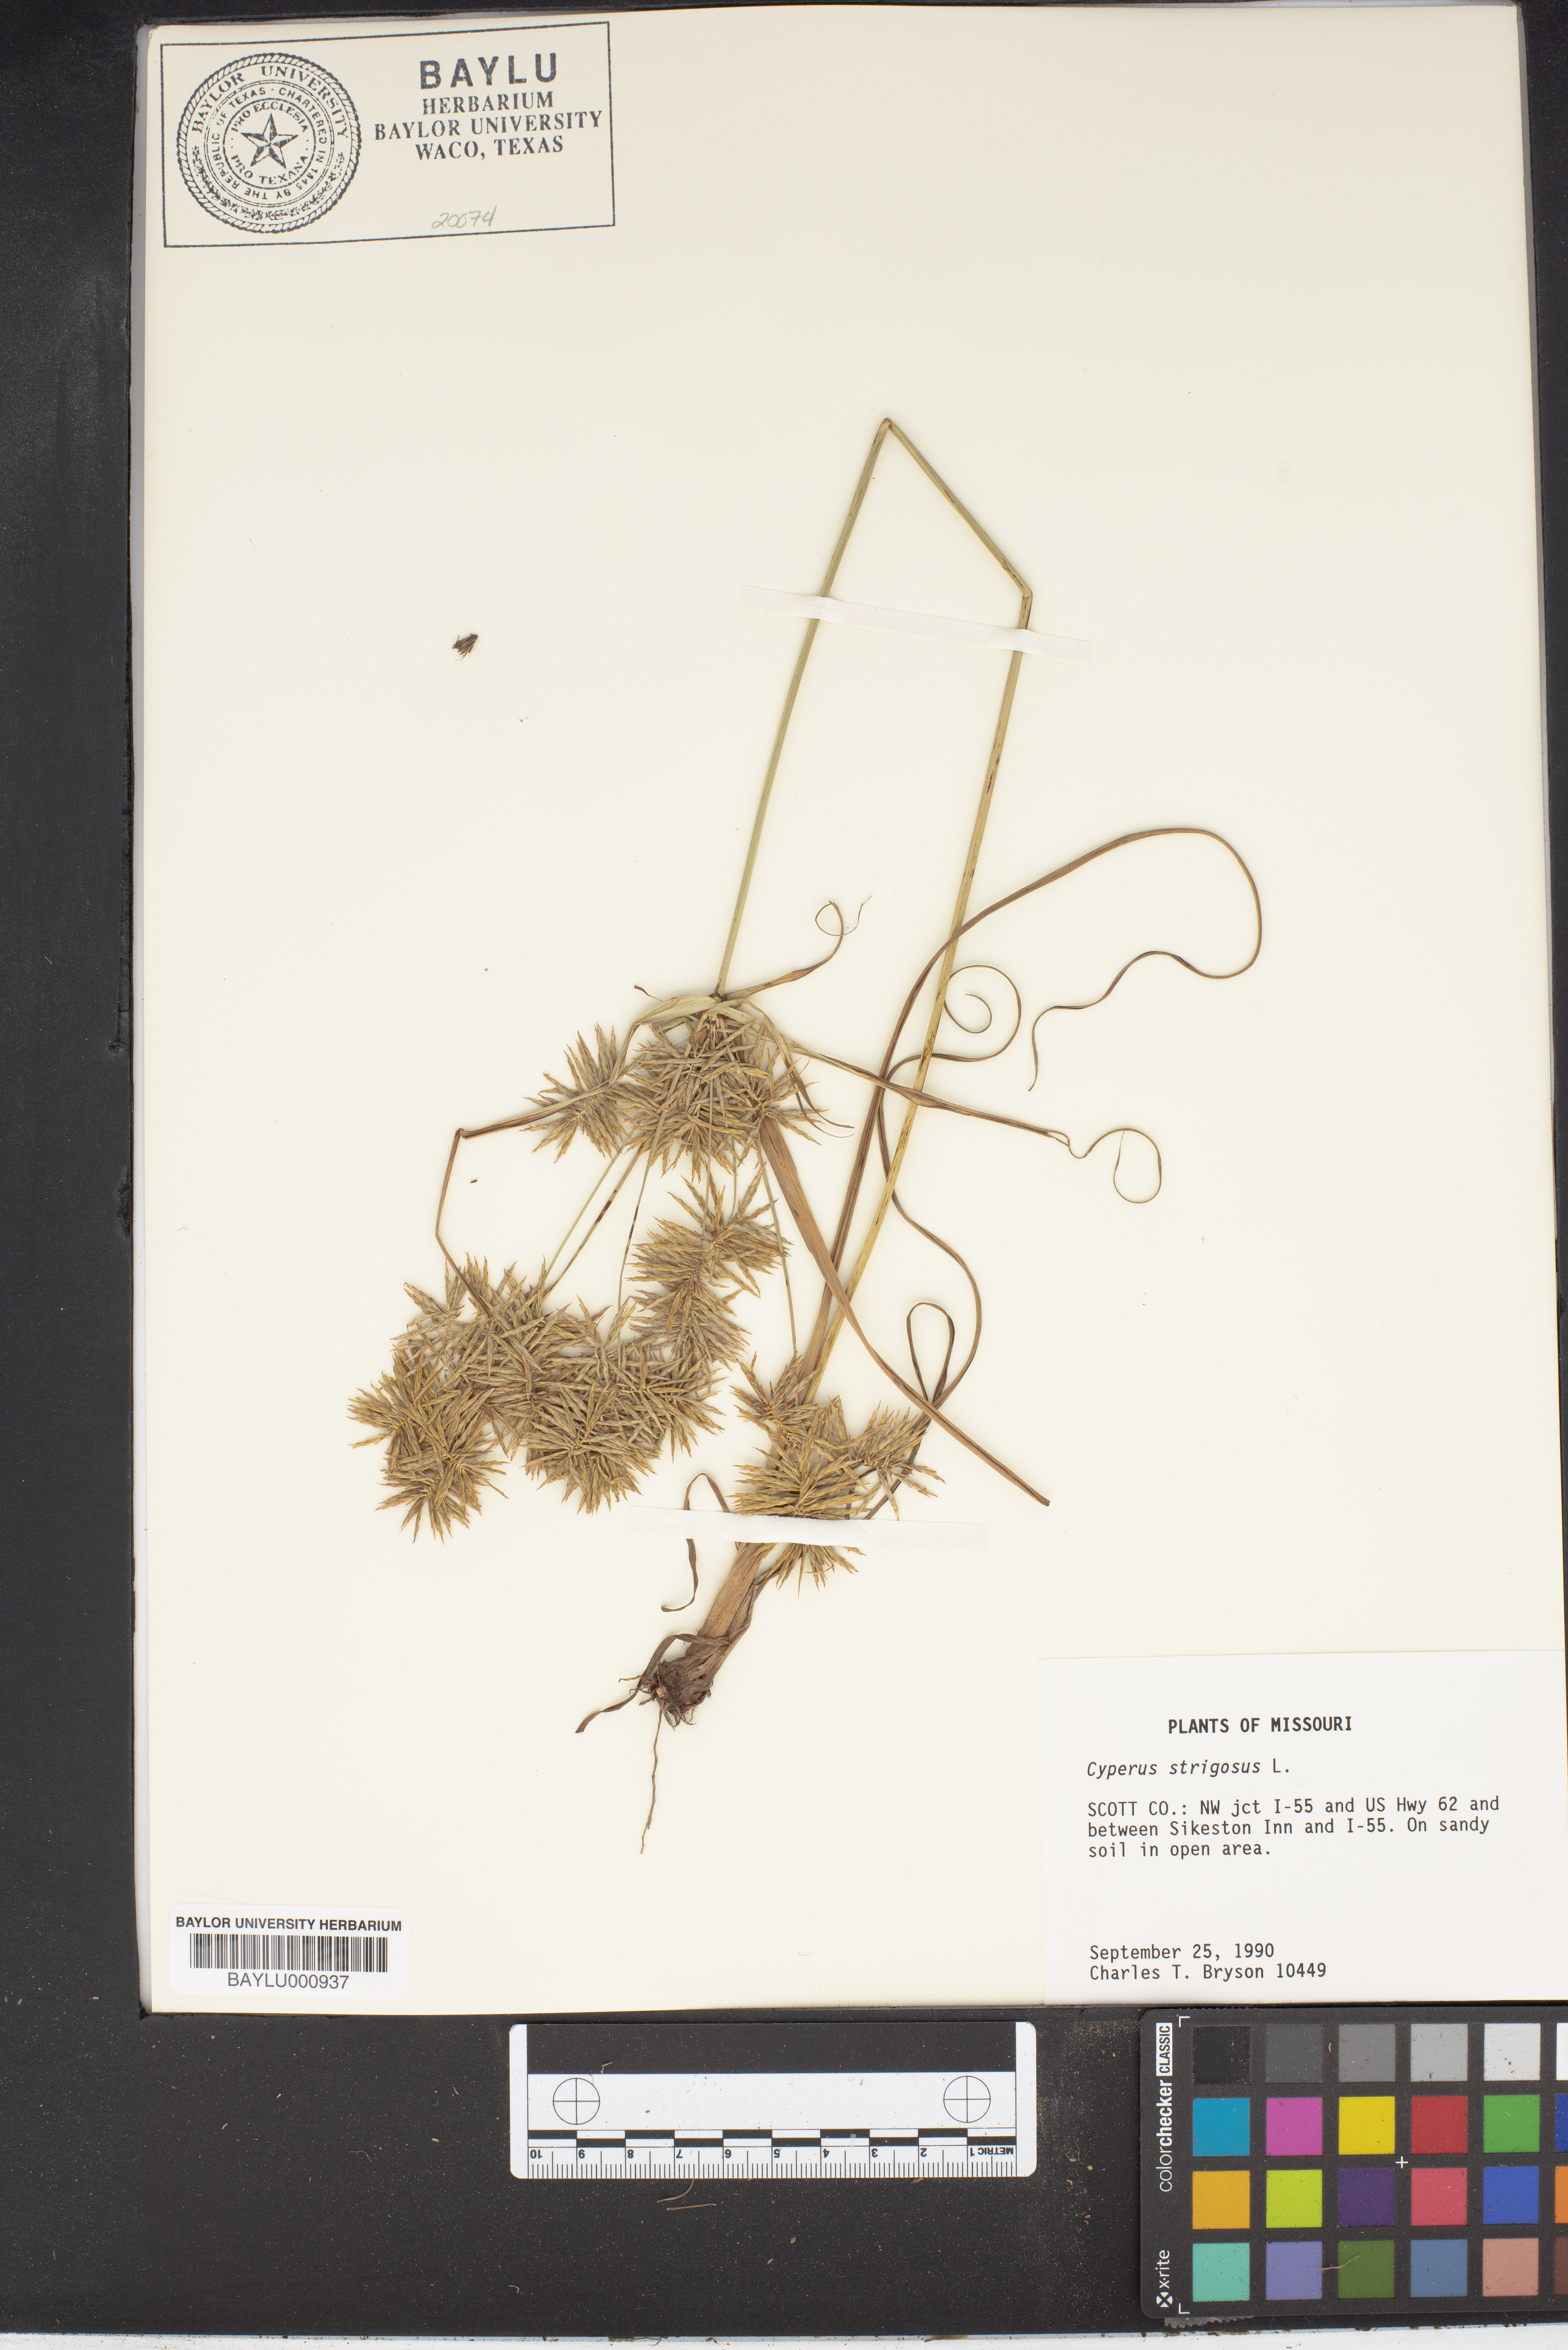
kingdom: Plantae
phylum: Tracheophyta
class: Liliopsida
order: Poales
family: Cyperaceae
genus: Cyperus
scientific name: Cyperus strigosus
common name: False nutsedge
